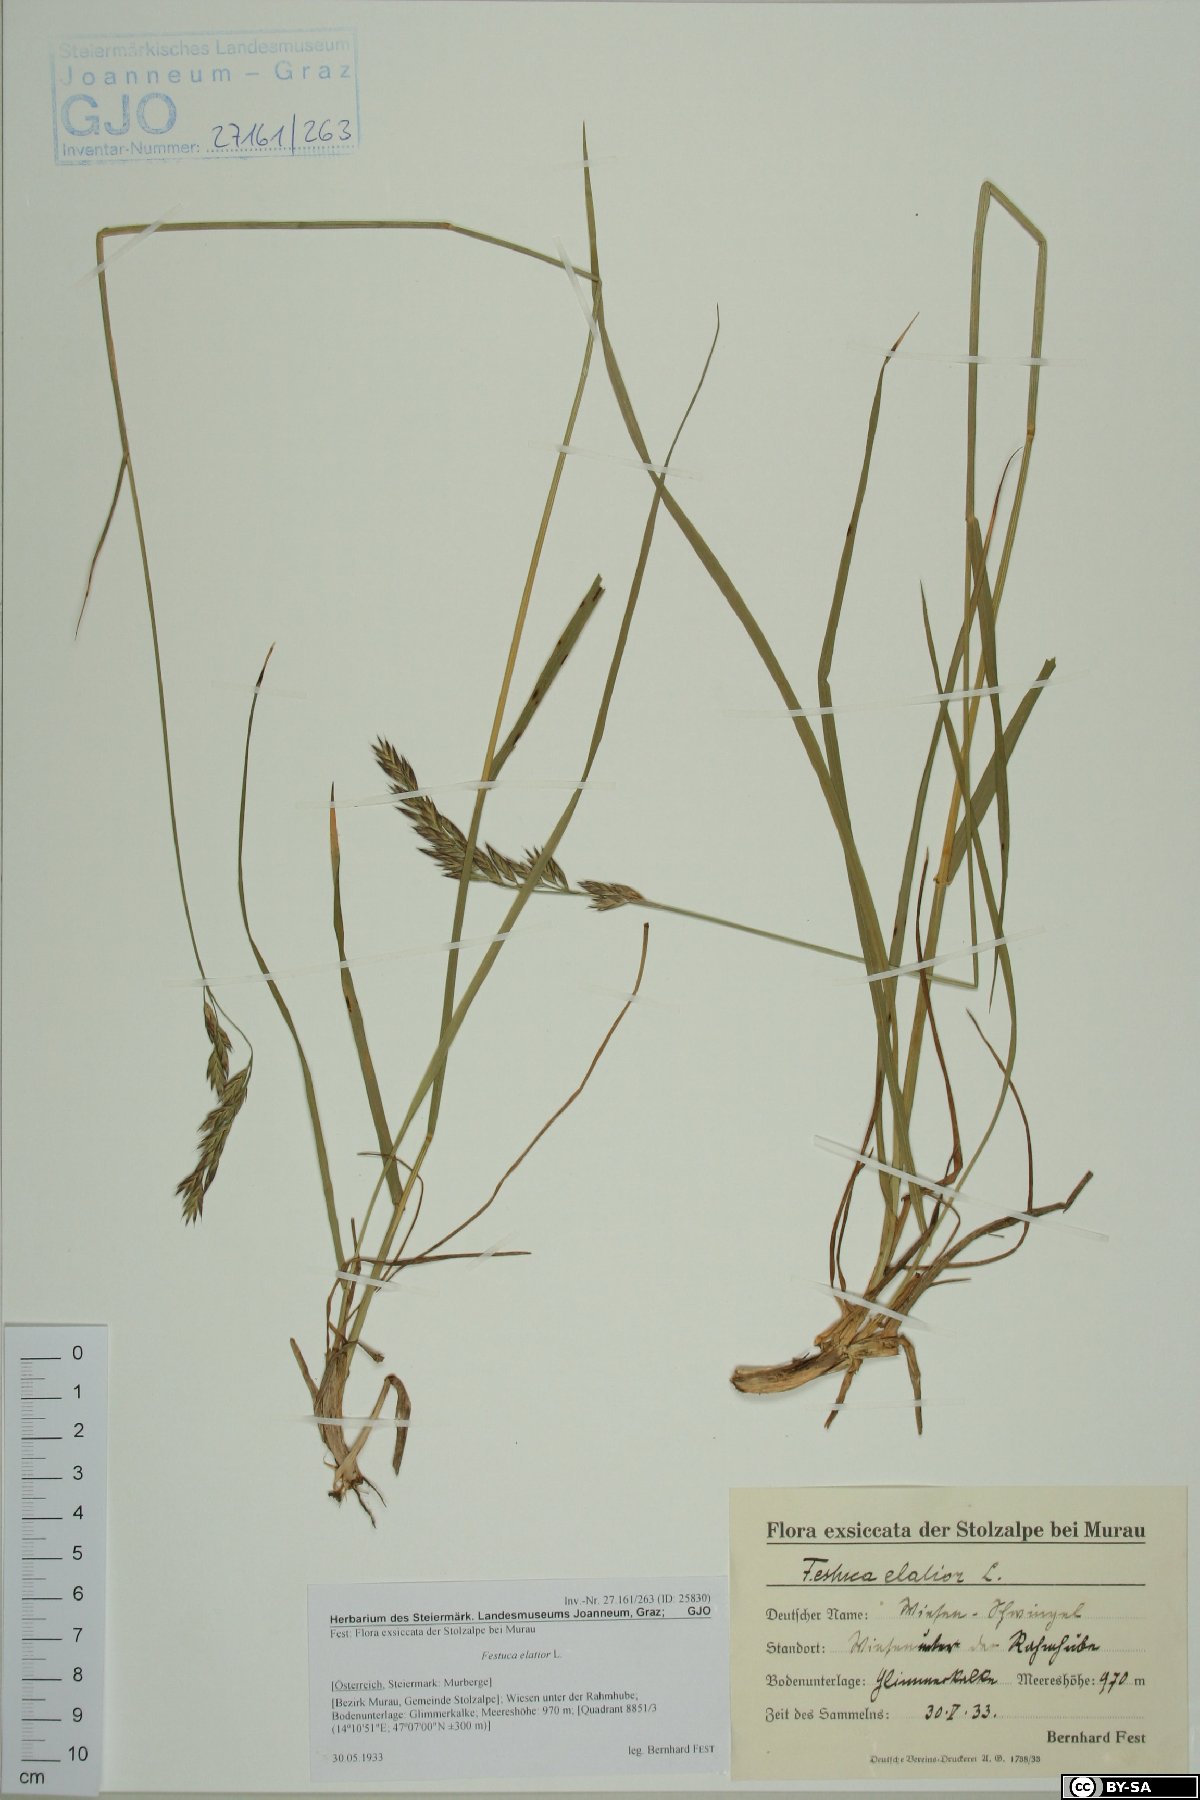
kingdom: Plantae
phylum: Tracheophyta
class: Liliopsida
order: Poales
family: Poaceae
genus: Lolium
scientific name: Lolium arundinaceum
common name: Reed fescue
